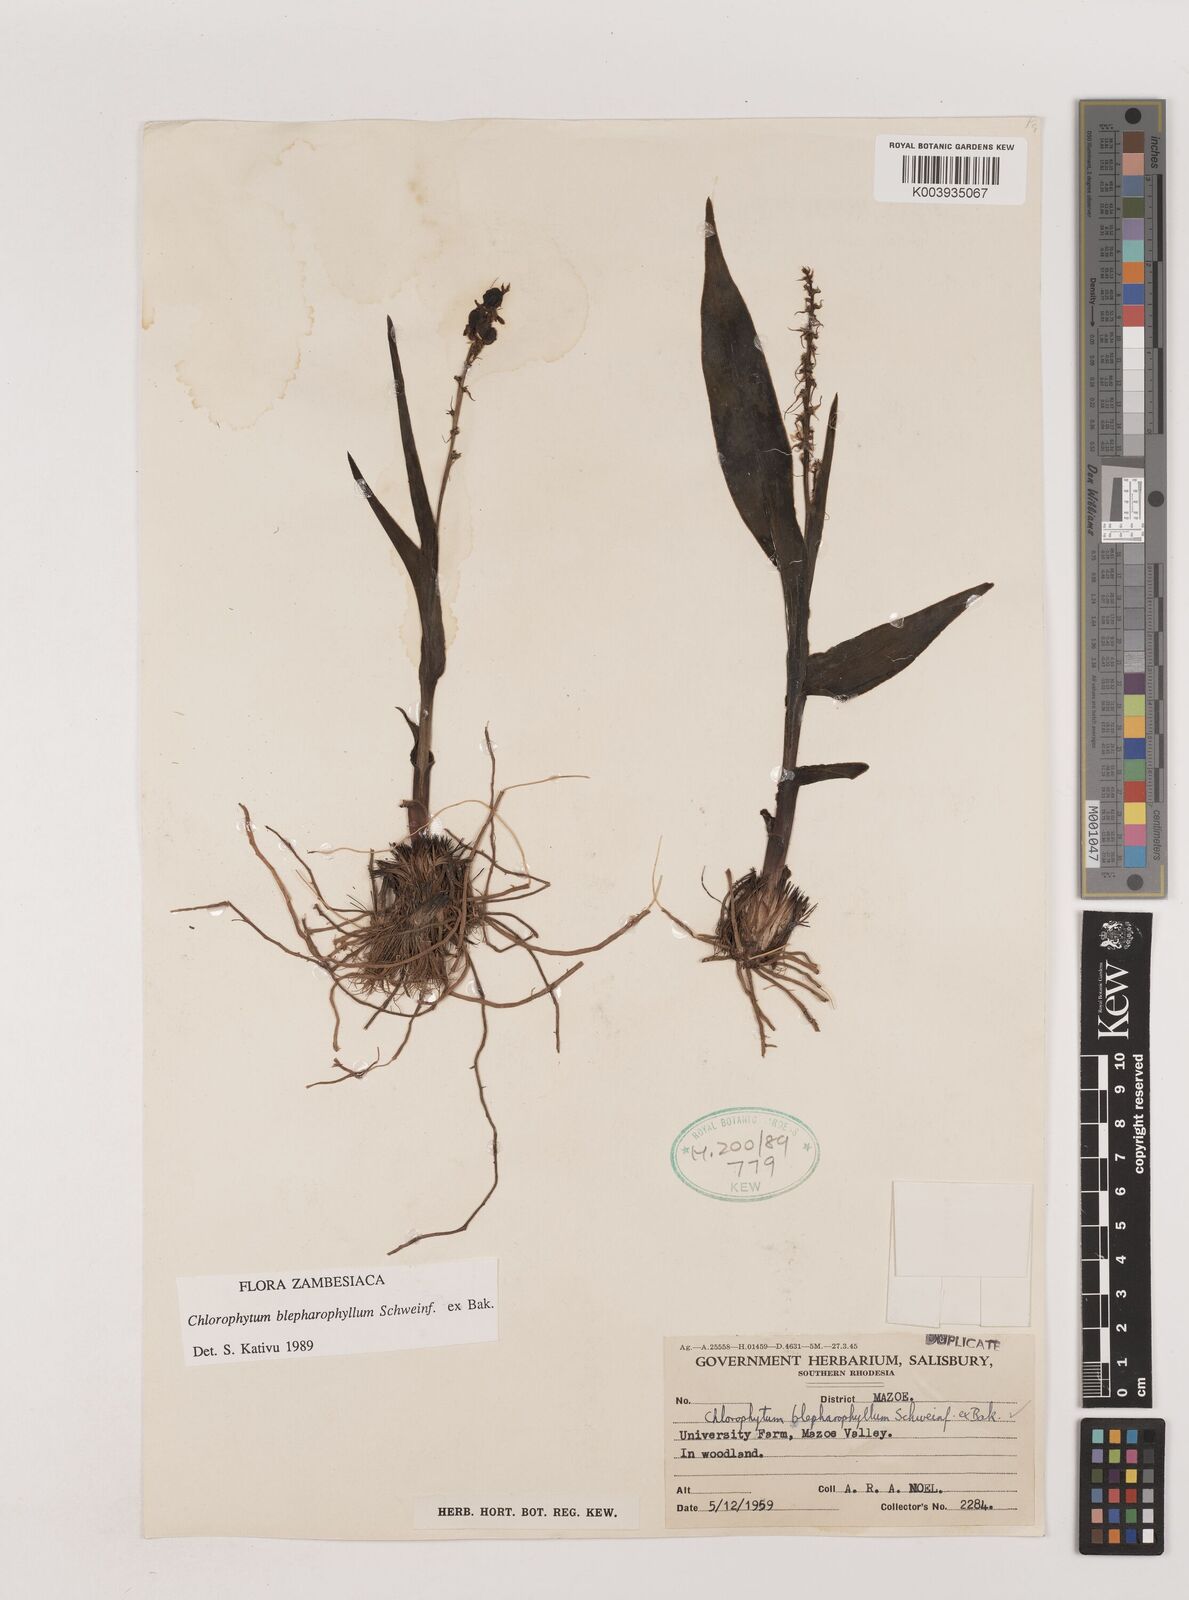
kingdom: Plantae
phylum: Tracheophyta
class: Liliopsida
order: Asparagales
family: Asparagaceae
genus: Chlorophytum
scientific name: Chlorophytum blepharophyllum
